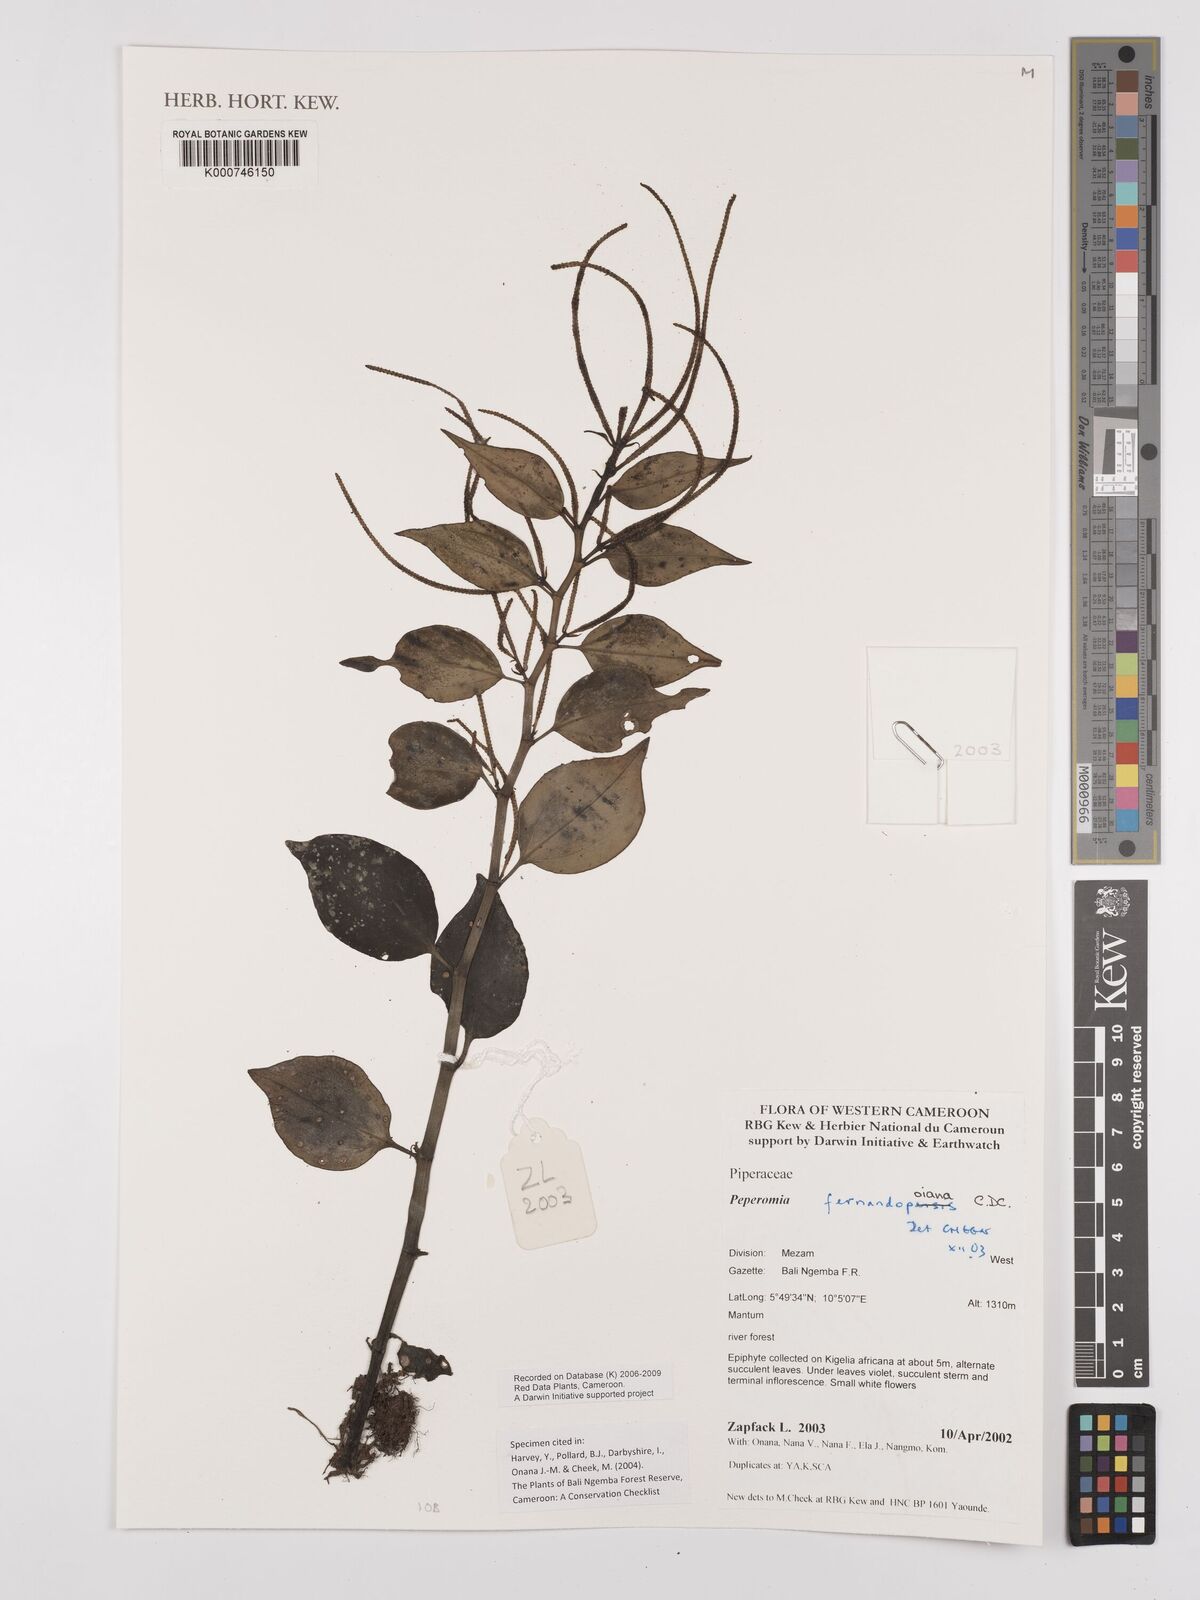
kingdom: Plantae
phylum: Tracheophyta
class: Magnoliopsida
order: Piperales
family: Piperaceae
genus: Peperomia
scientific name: Peperomia fernandopoiana
